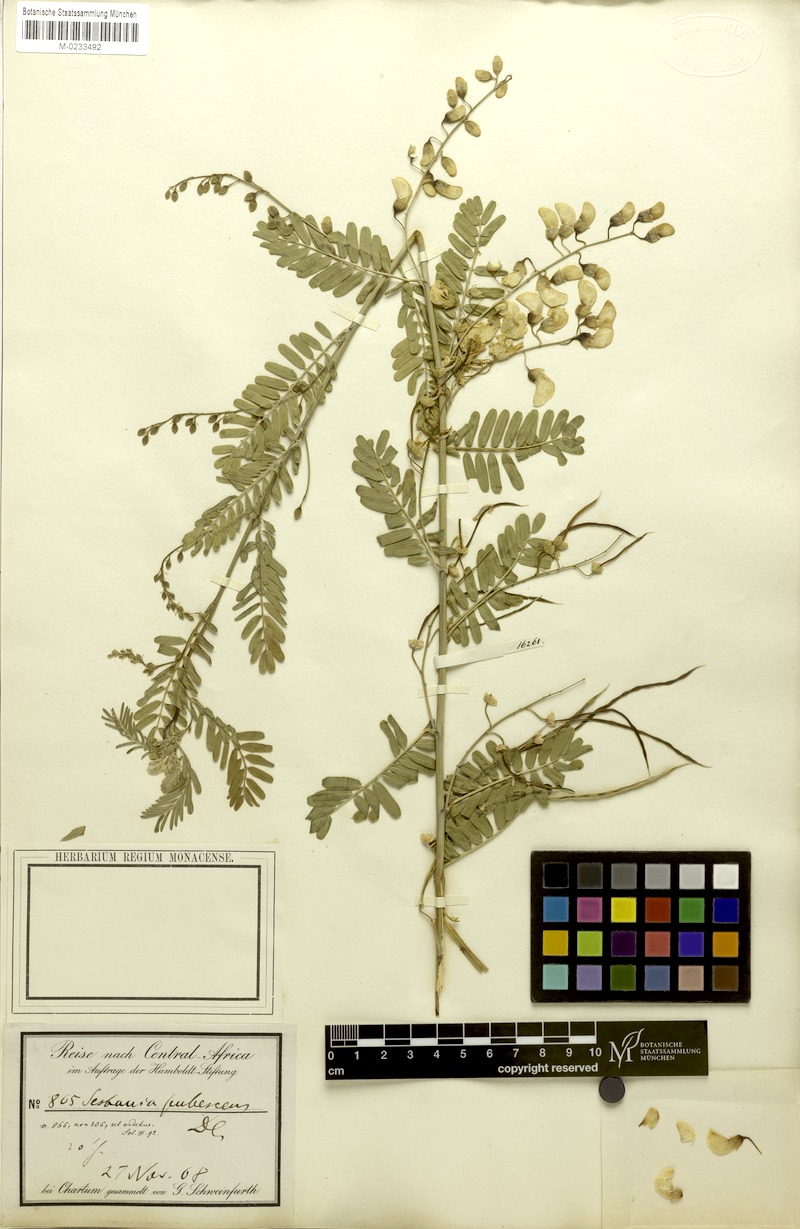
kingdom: Plantae
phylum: Tracheophyta
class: Magnoliopsida
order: Fabales
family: Fabaceae
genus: Sesbania
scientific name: Sesbania sesban
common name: Egyptian sesban
